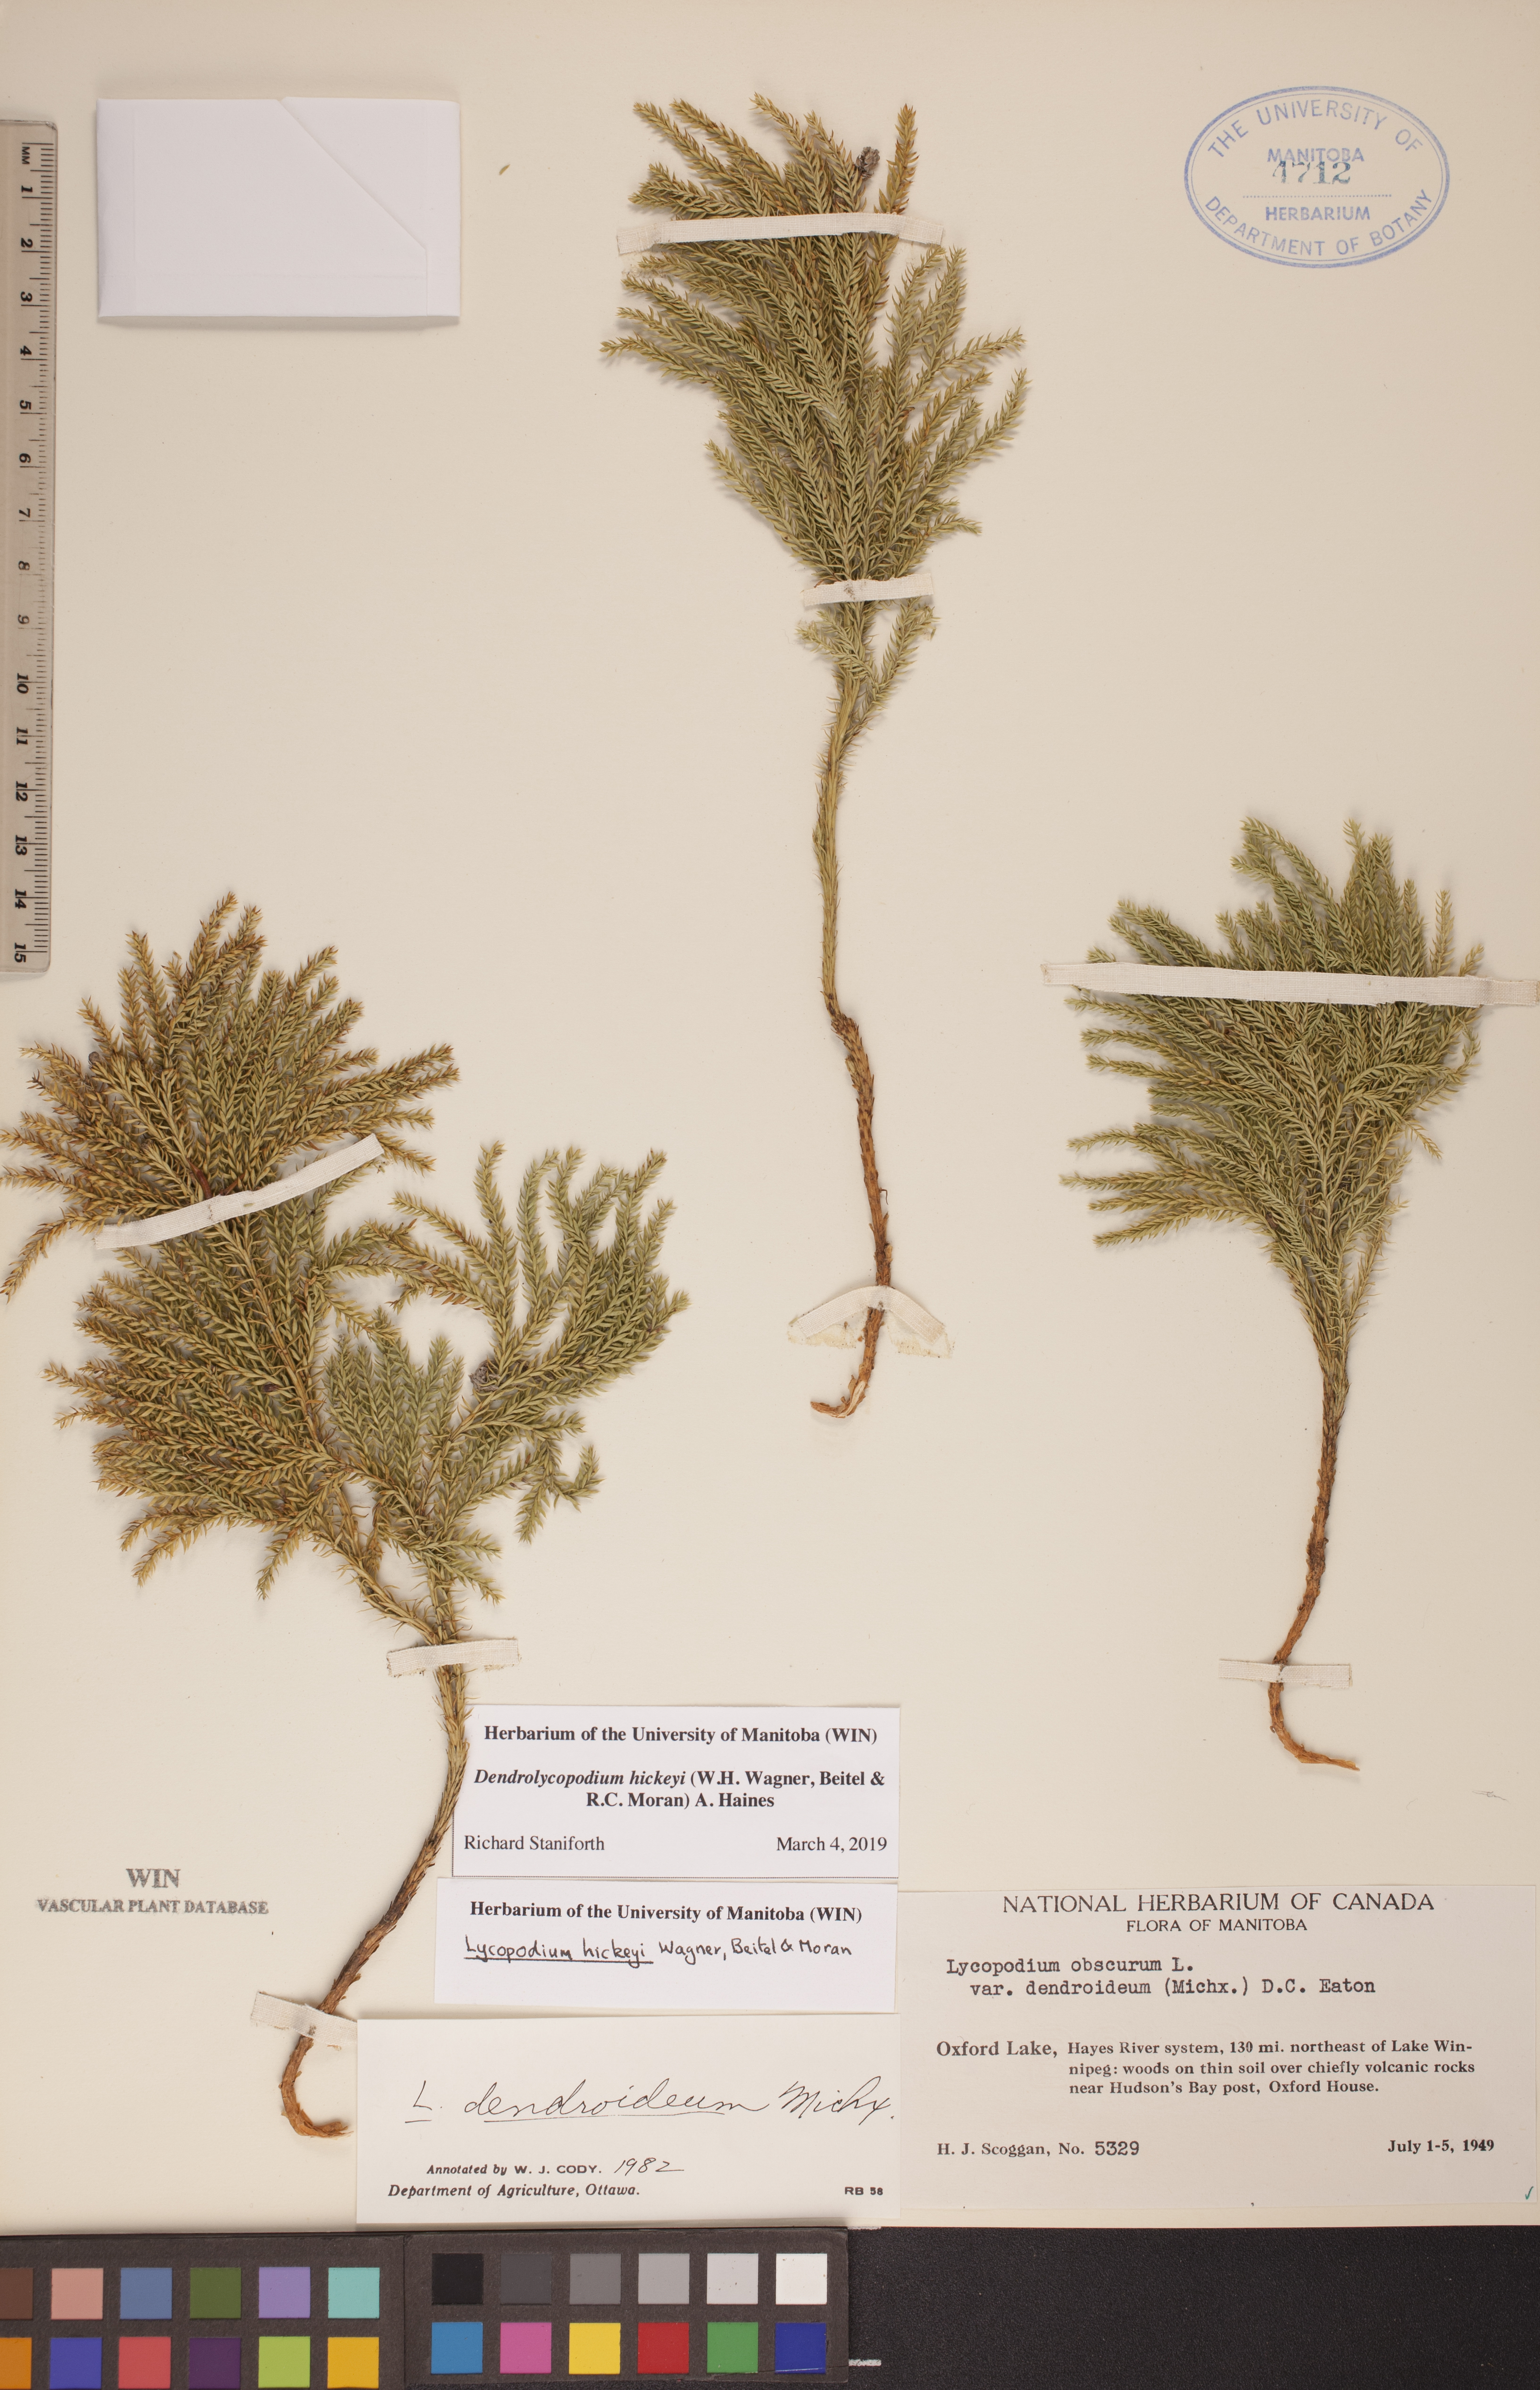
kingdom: Plantae
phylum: Tracheophyta
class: Lycopodiopsida
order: Lycopodiales
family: Lycopodiaceae
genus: Dendrolycopodium
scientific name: Dendrolycopodium hickeyi
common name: Hickey's clubmoss
